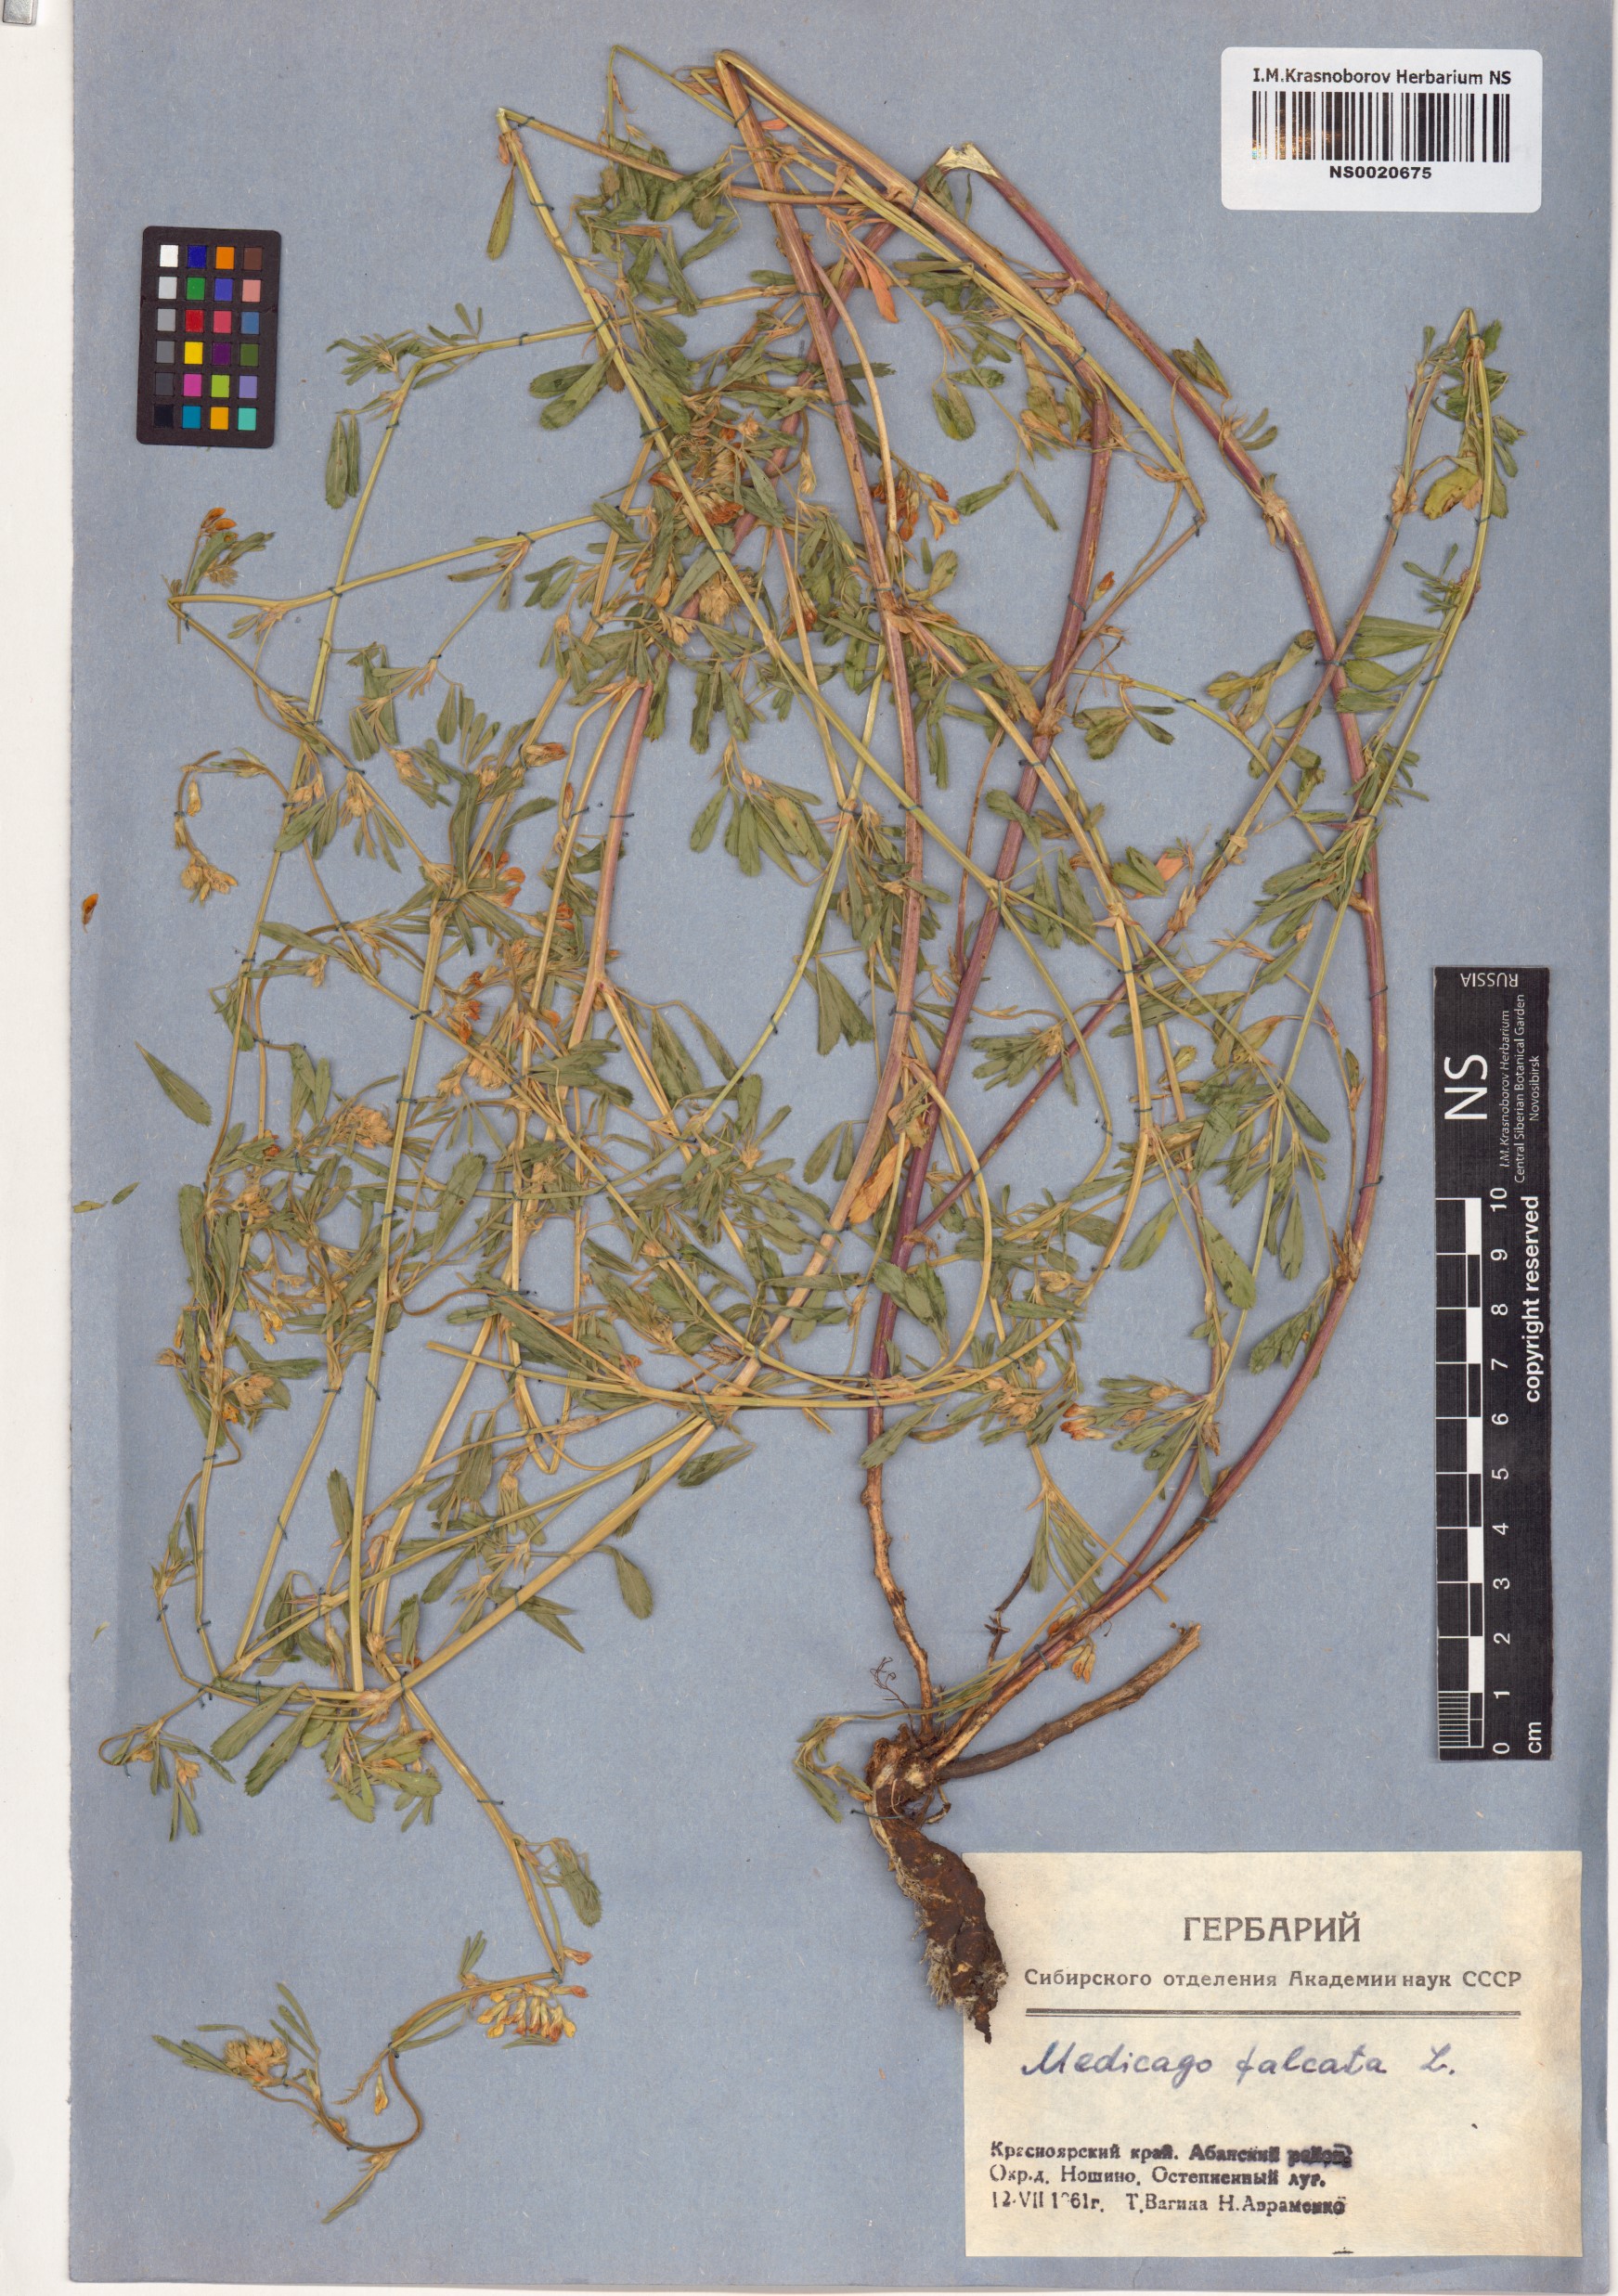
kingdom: Plantae
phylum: Tracheophyta
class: Magnoliopsida
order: Fabales
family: Fabaceae
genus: Medicago
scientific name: Medicago falcata
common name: Sickle medick
